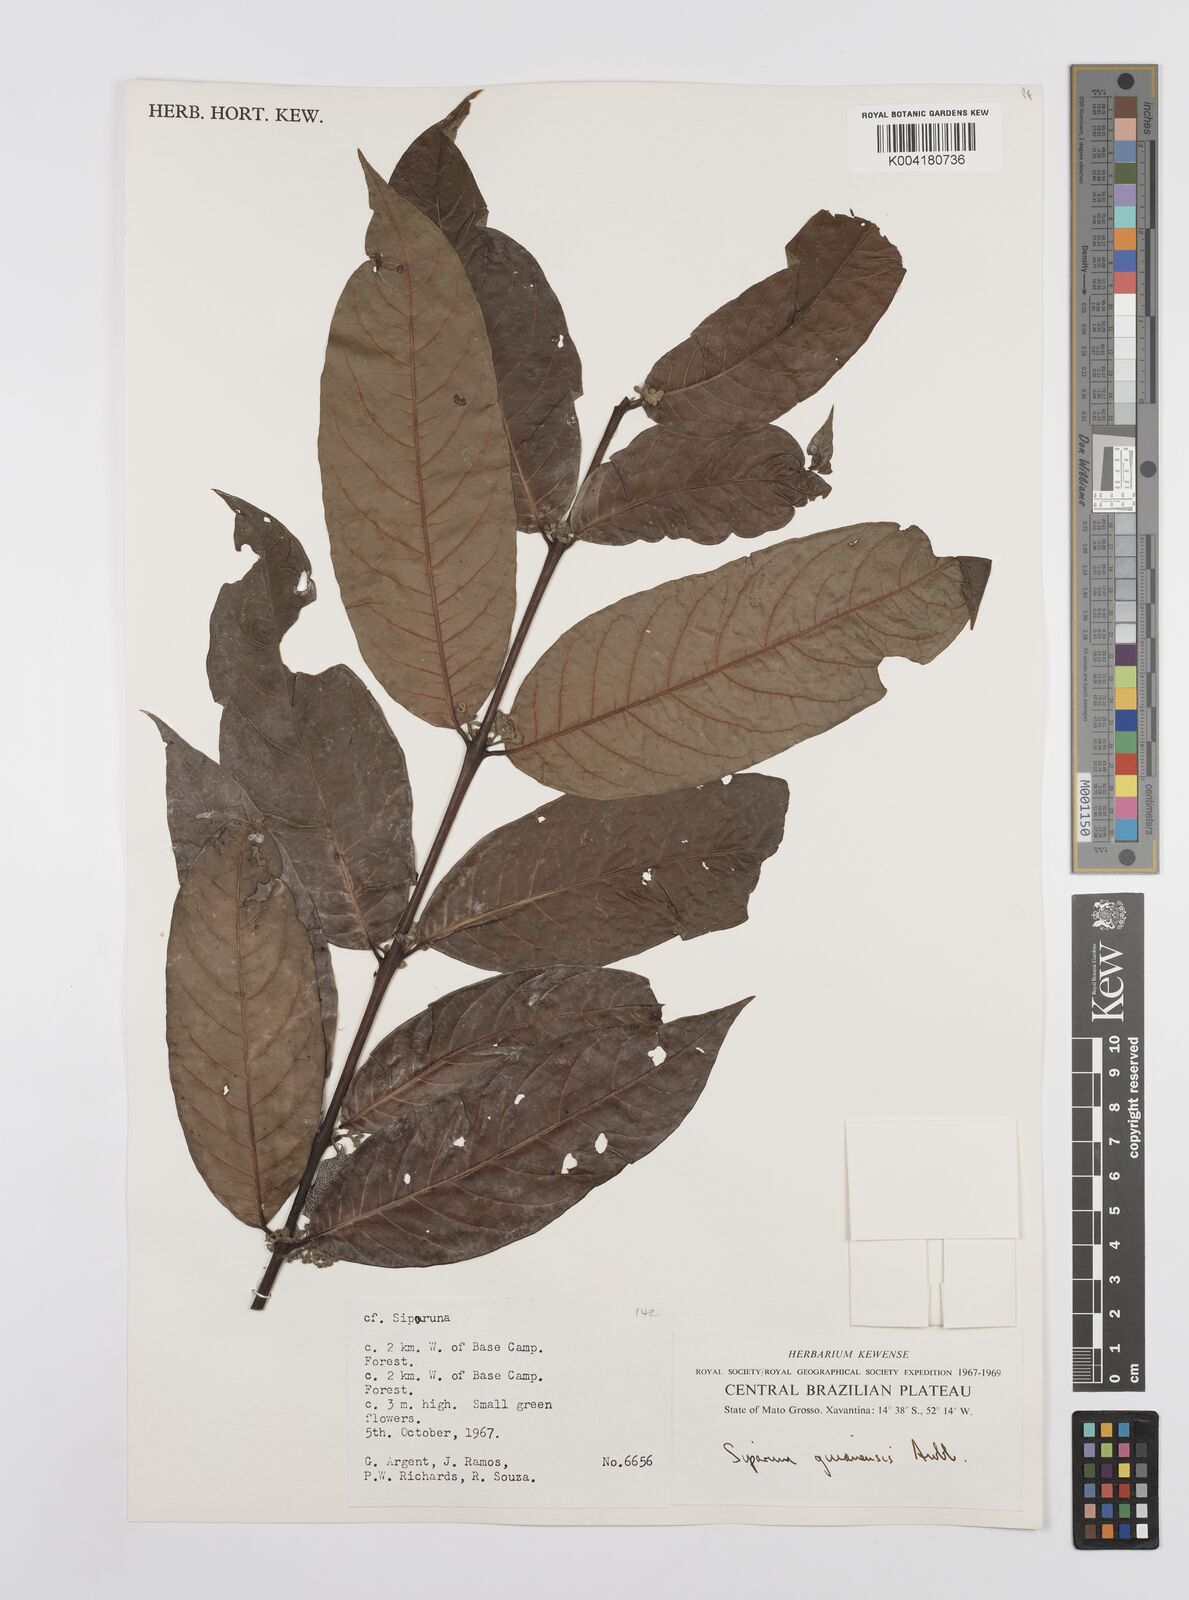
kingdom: Plantae
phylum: Tracheophyta
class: Magnoliopsida
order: Laurales
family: Siparunaceae
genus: Siparuna
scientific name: Siparuna guianensis
